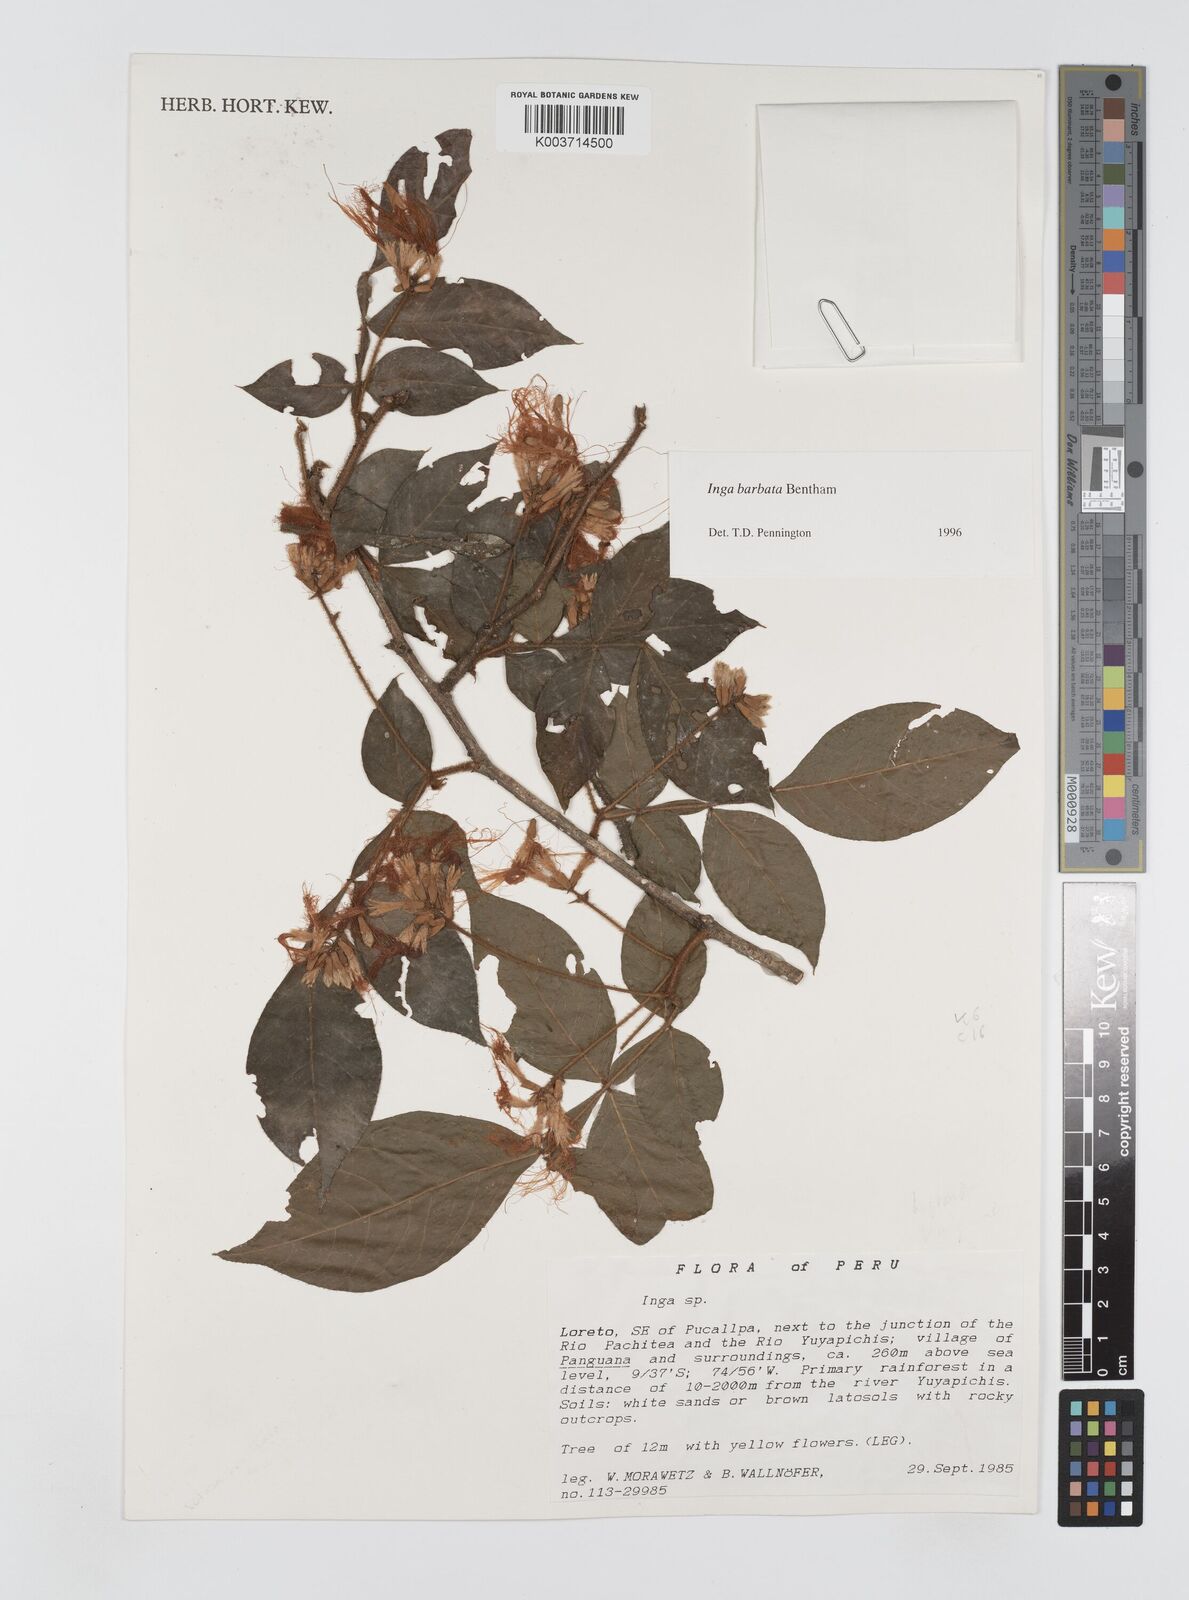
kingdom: Plantae
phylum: Tracheophyta
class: Magnoliopsida
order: Fabales
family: Fabaceae
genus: Inga
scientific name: Inga
